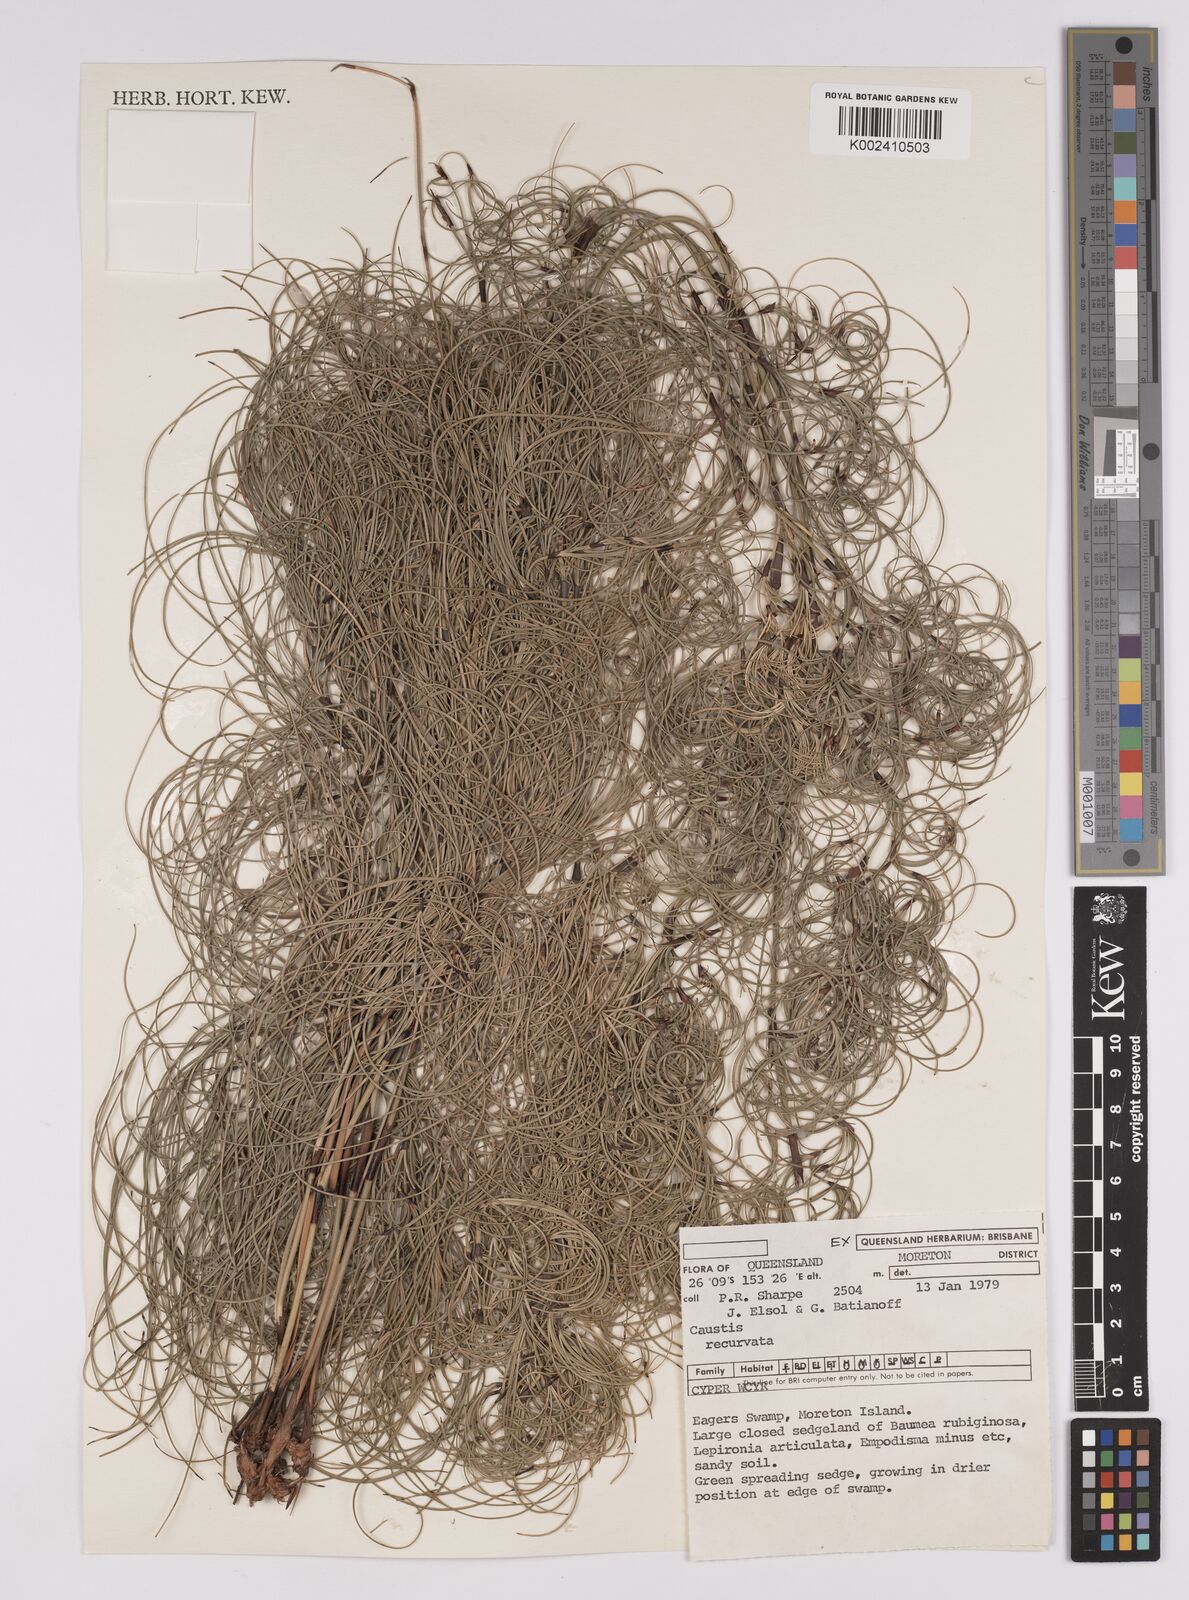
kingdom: Plantae
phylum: Tracheophyta
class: Liliopsida
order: Poales
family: Cyperaceae
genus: Caustis
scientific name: Caustis recurvata
